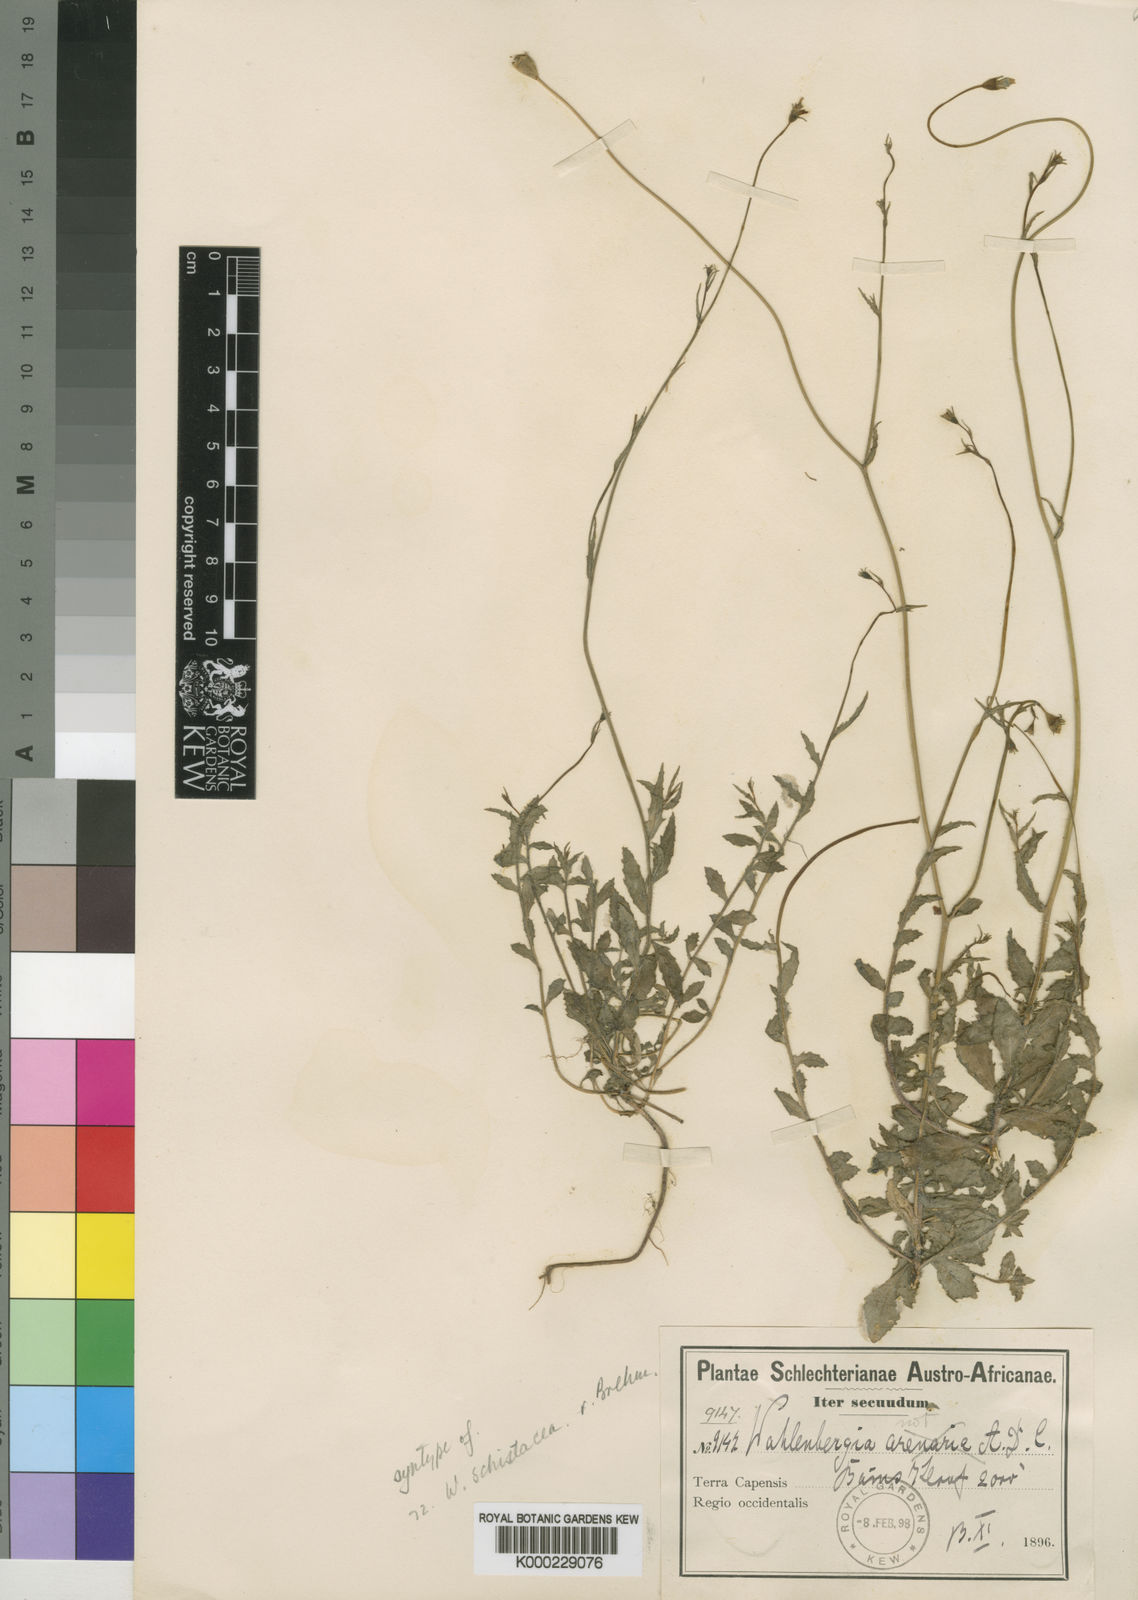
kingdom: Plantae
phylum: Tracheophyta
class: Magnoliopsida
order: Asterales
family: Campanulaceae
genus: Wahlenbergia
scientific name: Wahlenbergia schistacea
